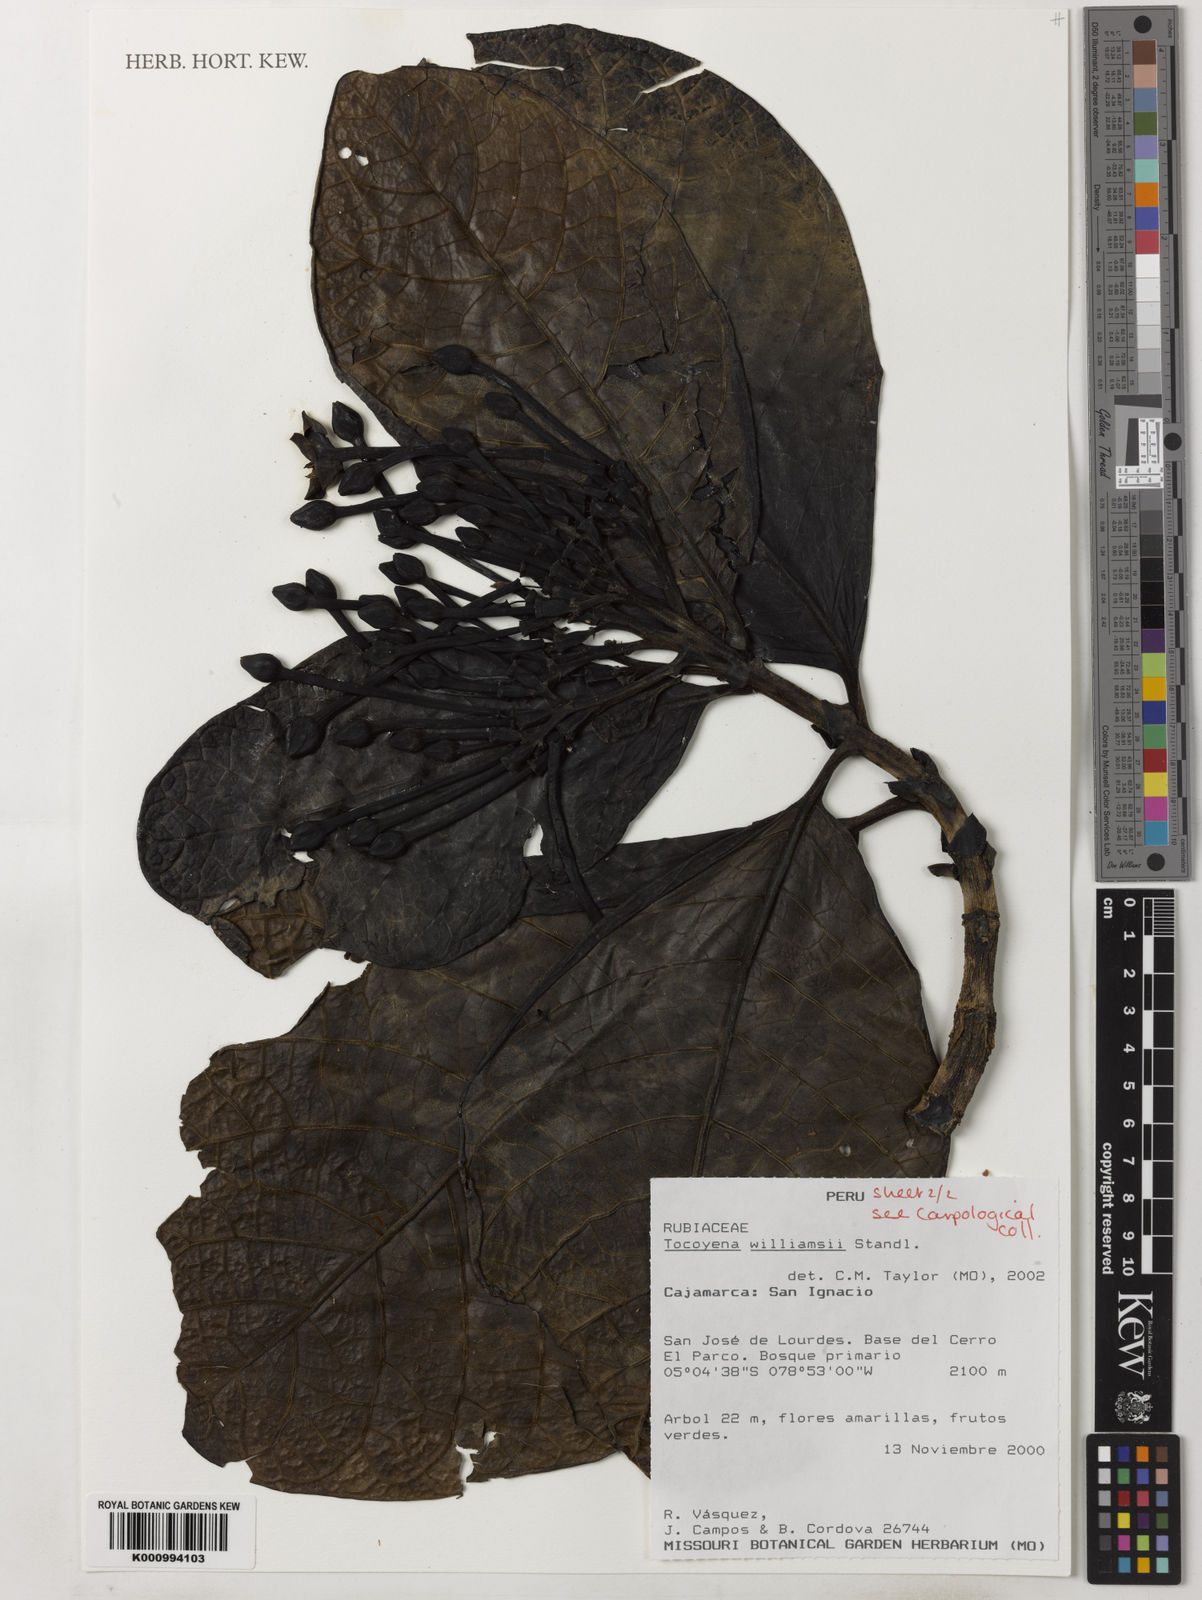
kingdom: Plantae
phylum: Tracheophyta
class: Magnoliopsida
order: Gentianales
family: Rubiaceae
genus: Tocoyena
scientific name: Tocoyena pittieri
